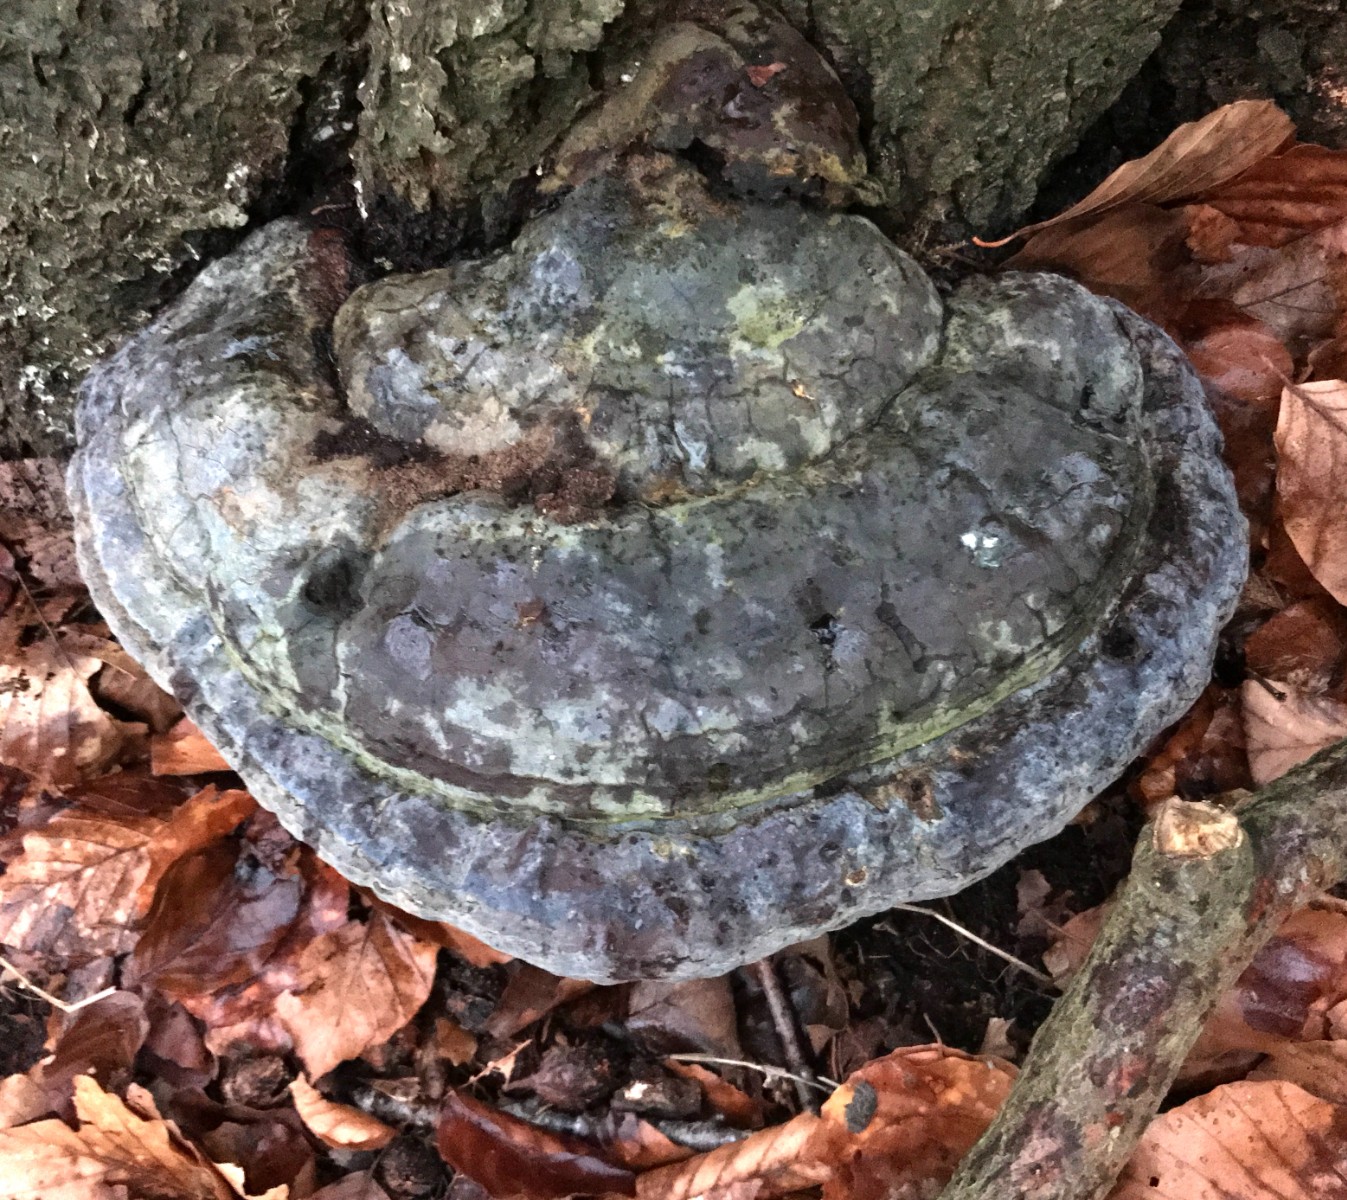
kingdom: Fungi
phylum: Basidiomycota
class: Agaricomycetes
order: Polyporales
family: Polyporaceae
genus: Ganoderma
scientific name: Ganoderma pfeifferi
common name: kobberrød lakporesvamp
